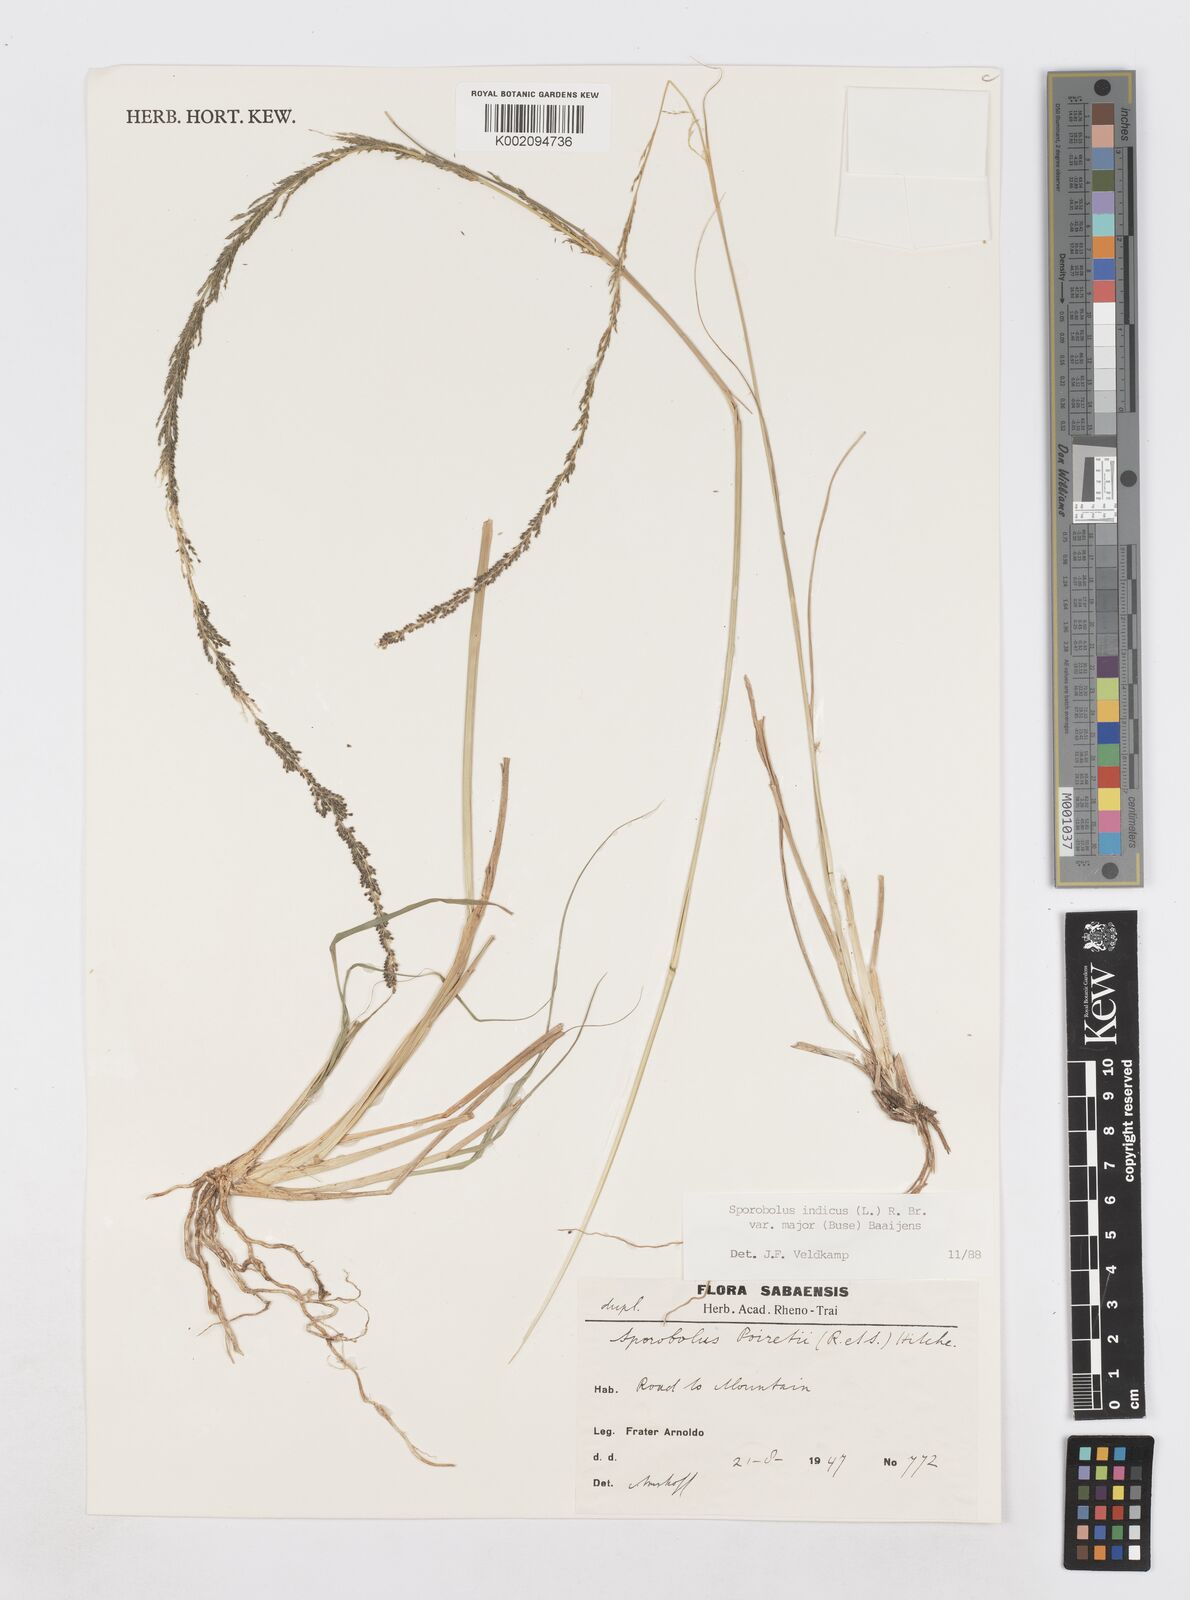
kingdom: Plantae
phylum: Tracheophyta
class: Liliopsida
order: Poales
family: Poaceae
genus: Sporobolus
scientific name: Sporobolus fertilis
